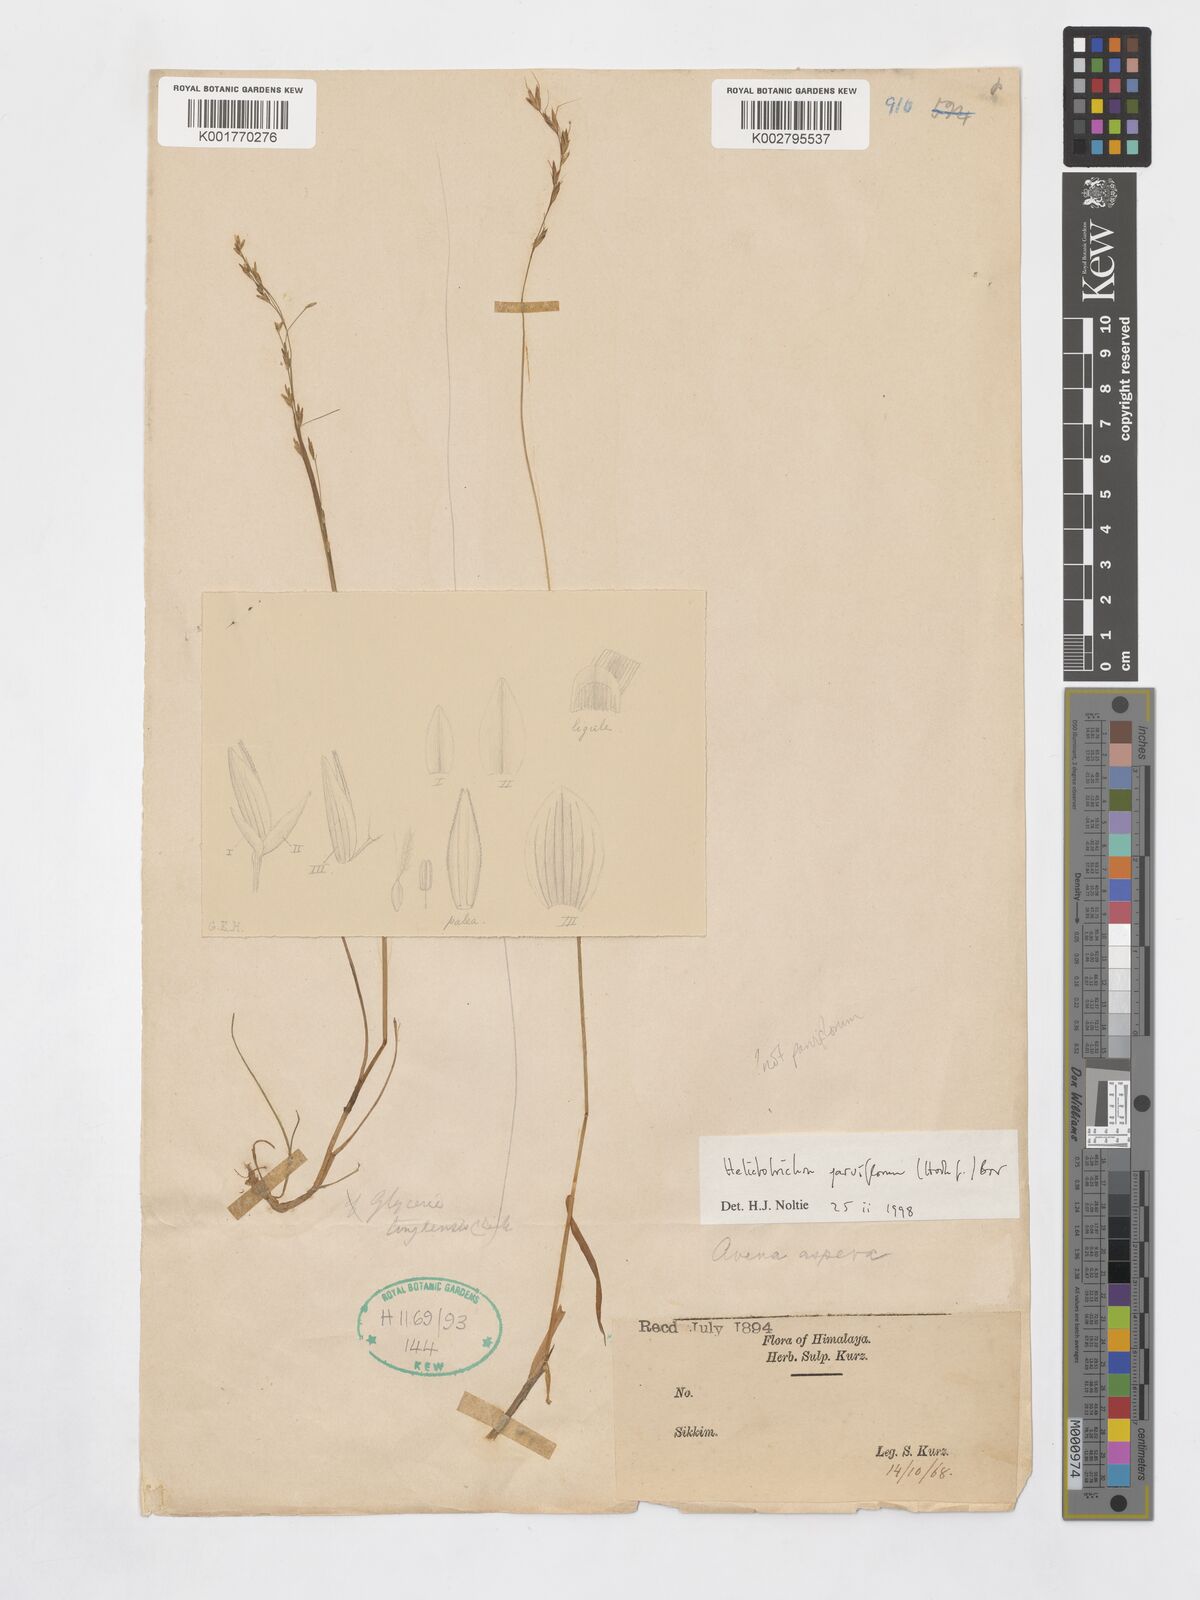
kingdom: Plantae
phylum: Tracheophyta
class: Liliopsida
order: Poales
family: Poaceae
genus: Tzveleviochloa
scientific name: Tzveleviochloa parviflora
